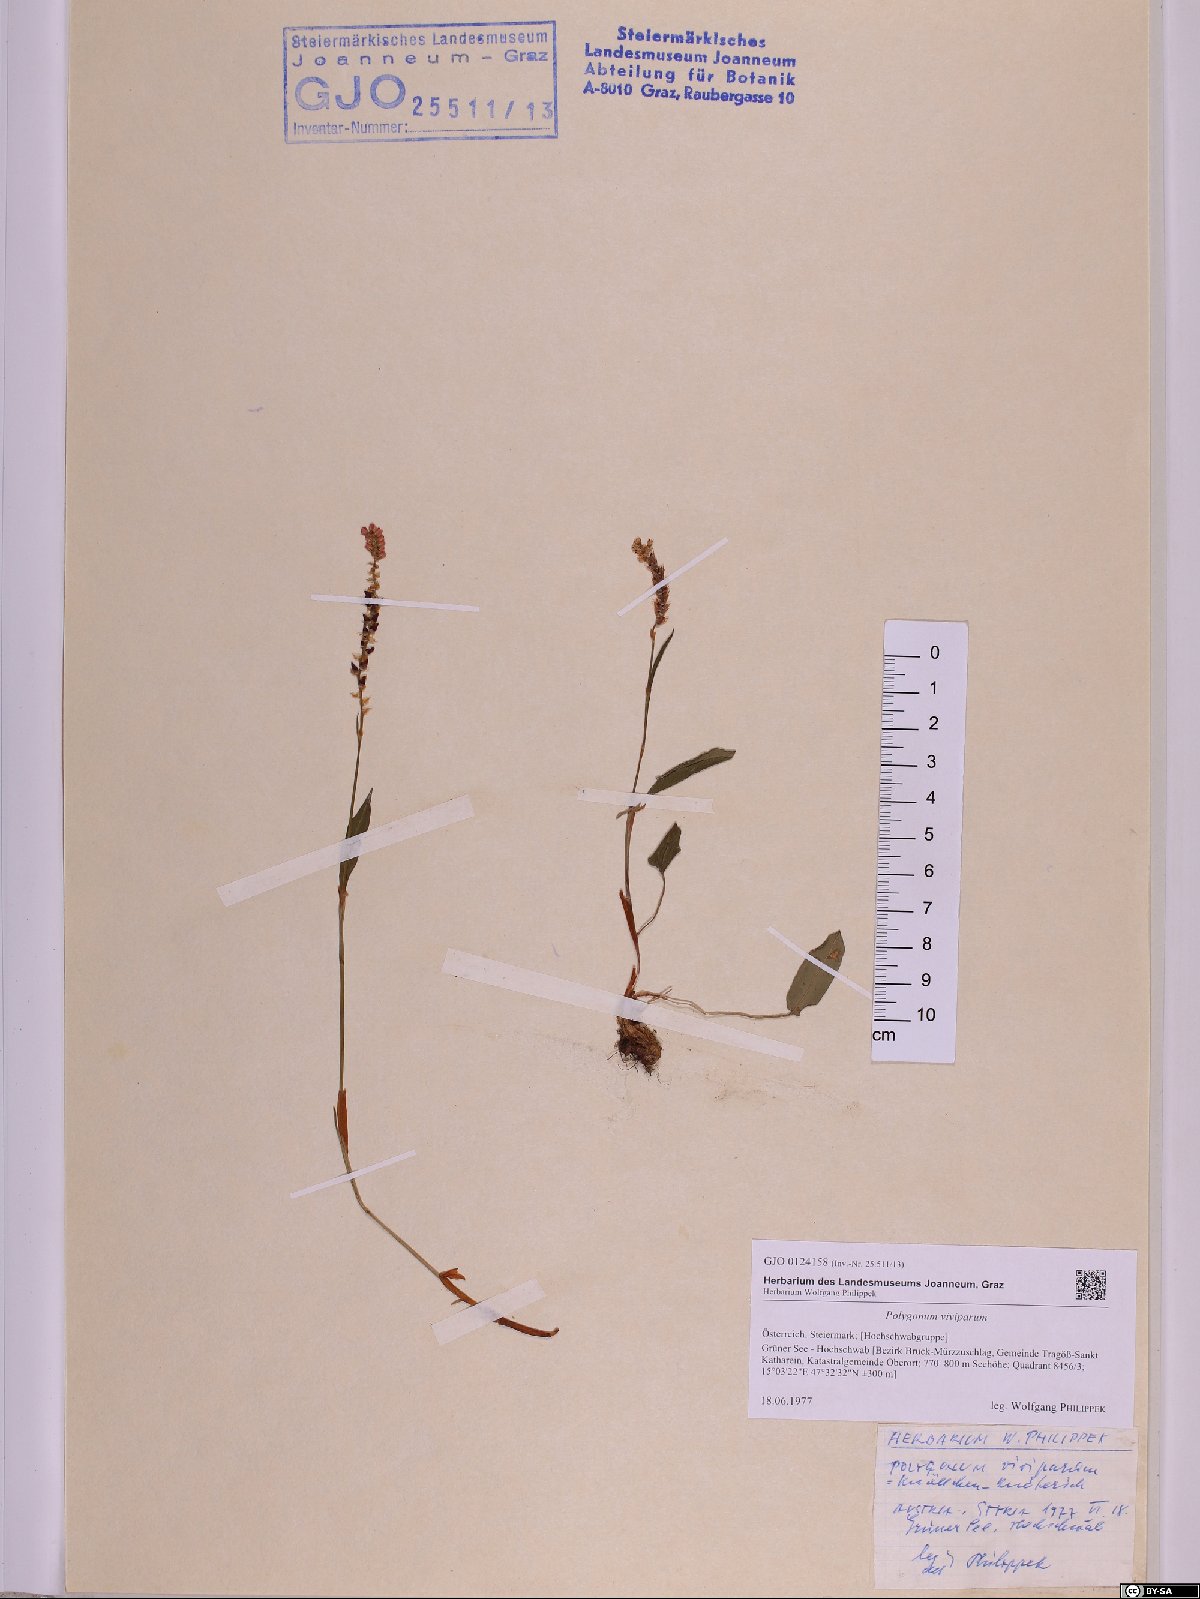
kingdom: Plantae
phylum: Tracheophyta
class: Magnoliopsida
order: Caryophyllales
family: Polygonaceae
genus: Bistorta
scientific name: Bistorta vivipara
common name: Alpine bistort
